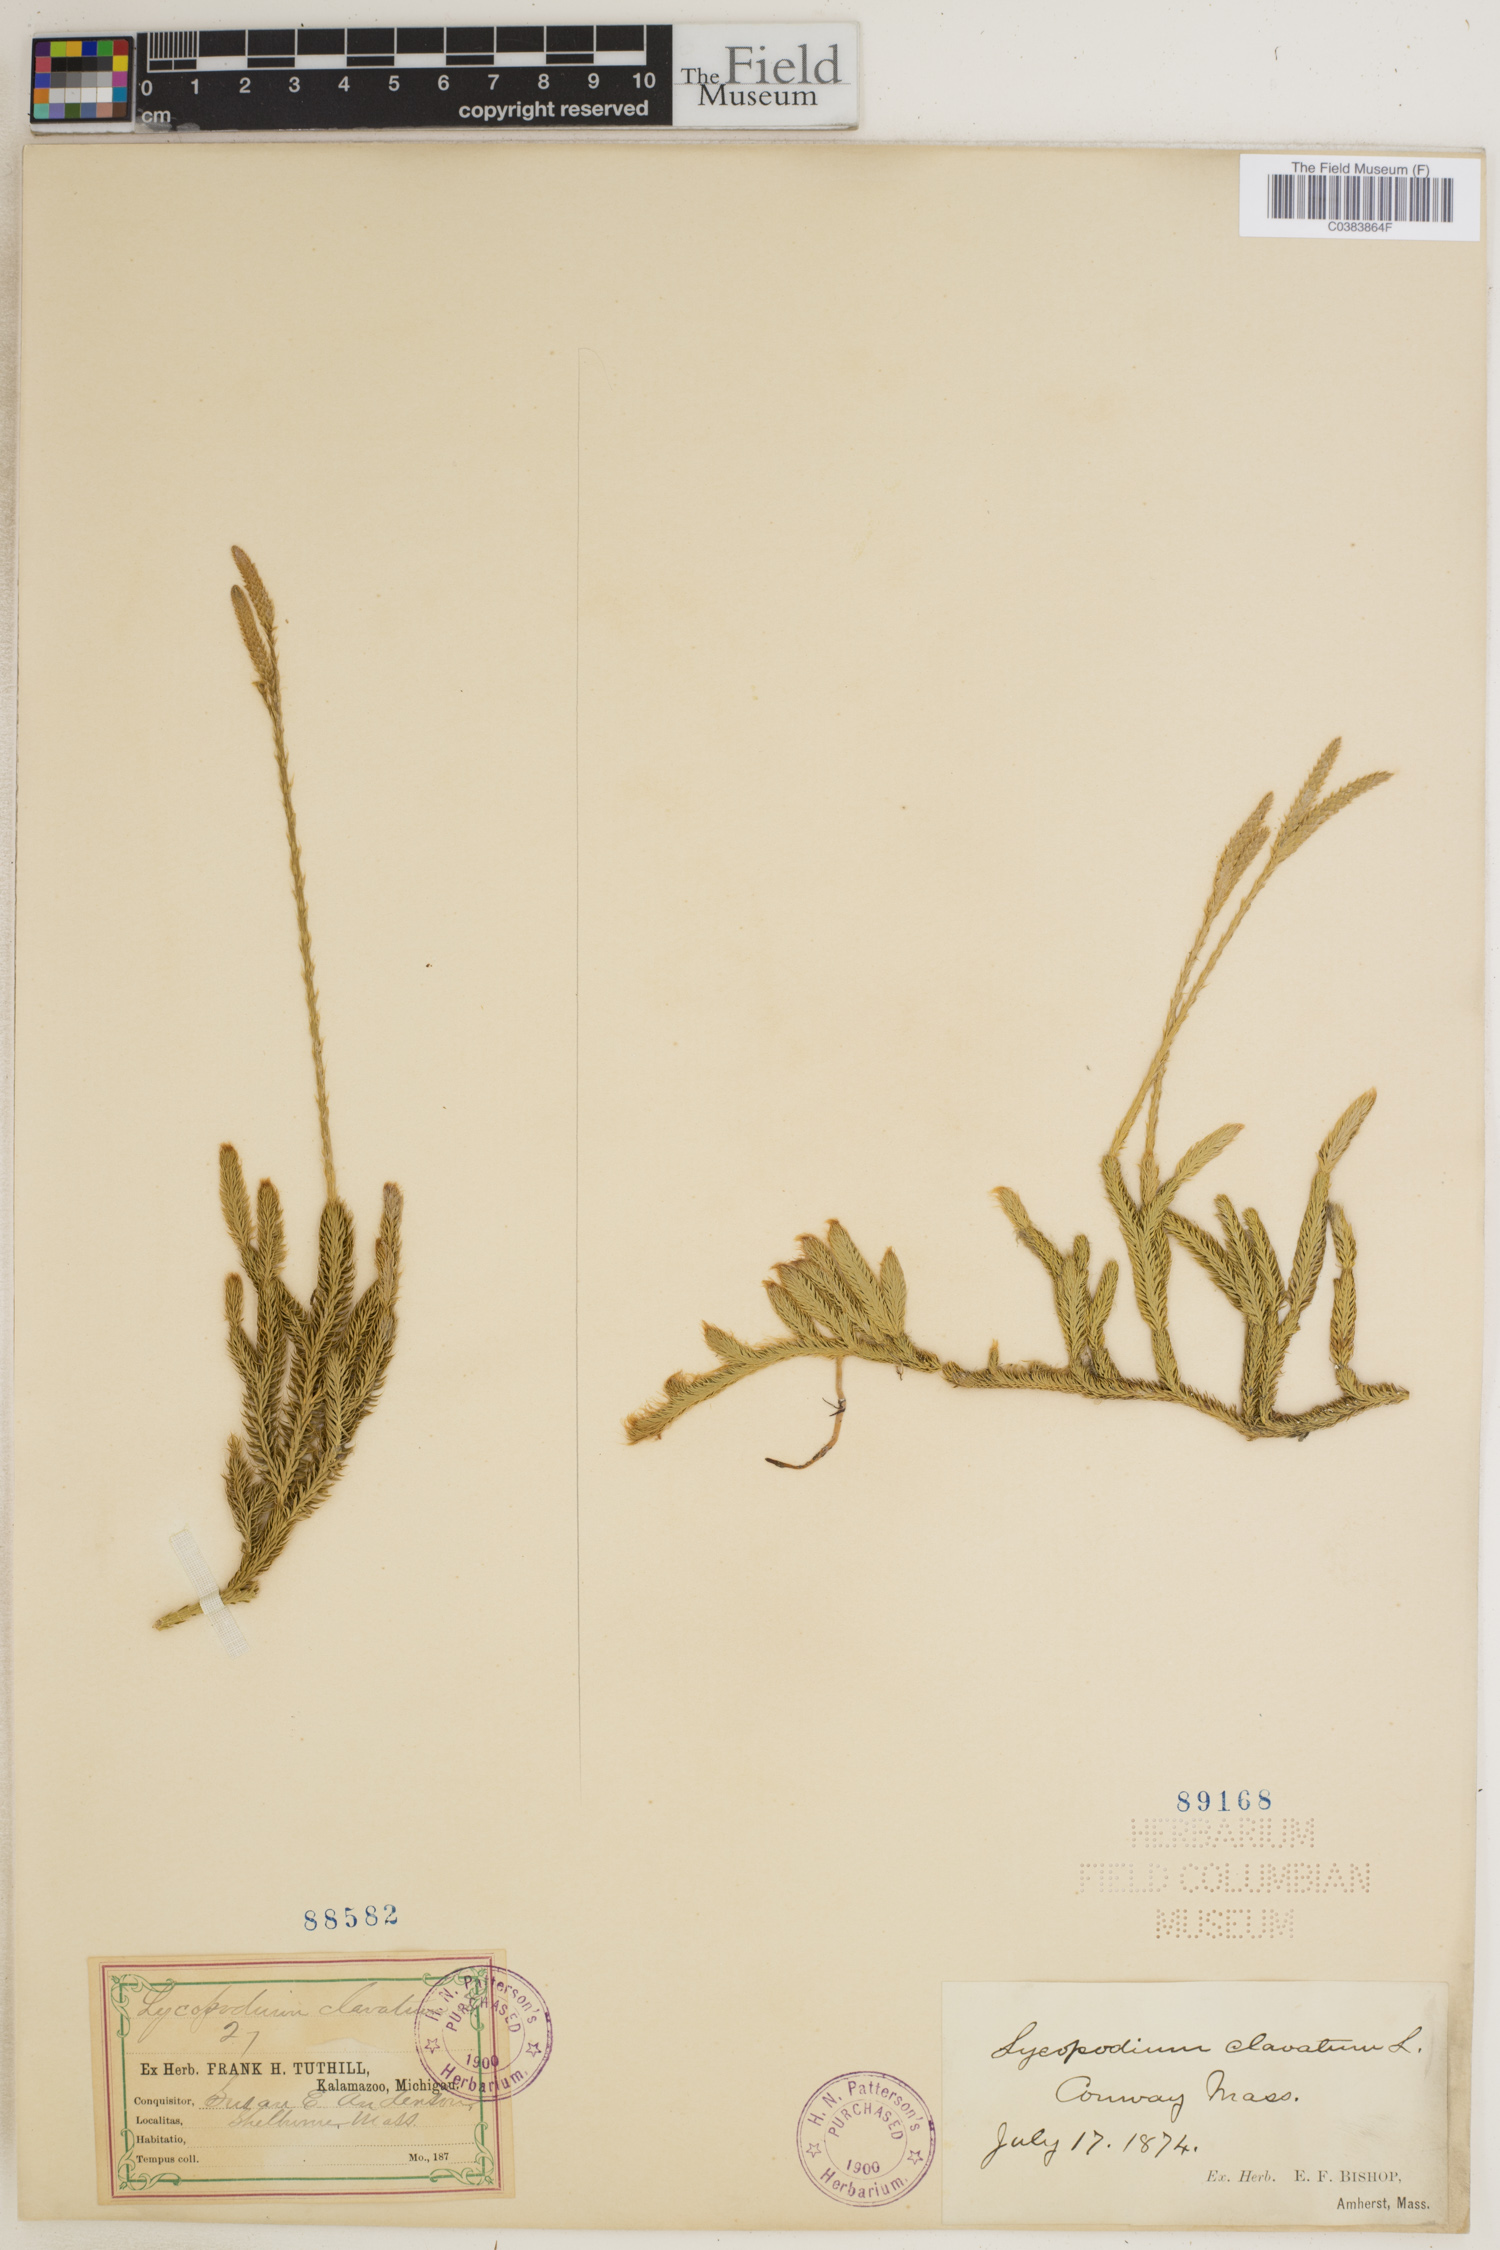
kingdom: Plantae
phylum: Tracheophyta
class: Lycopodiopsida
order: Lycopodiales
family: Lycopodiaceae
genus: Lycopodium
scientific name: Lycopodium clavatum
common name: Stag's-horn clubmoss
